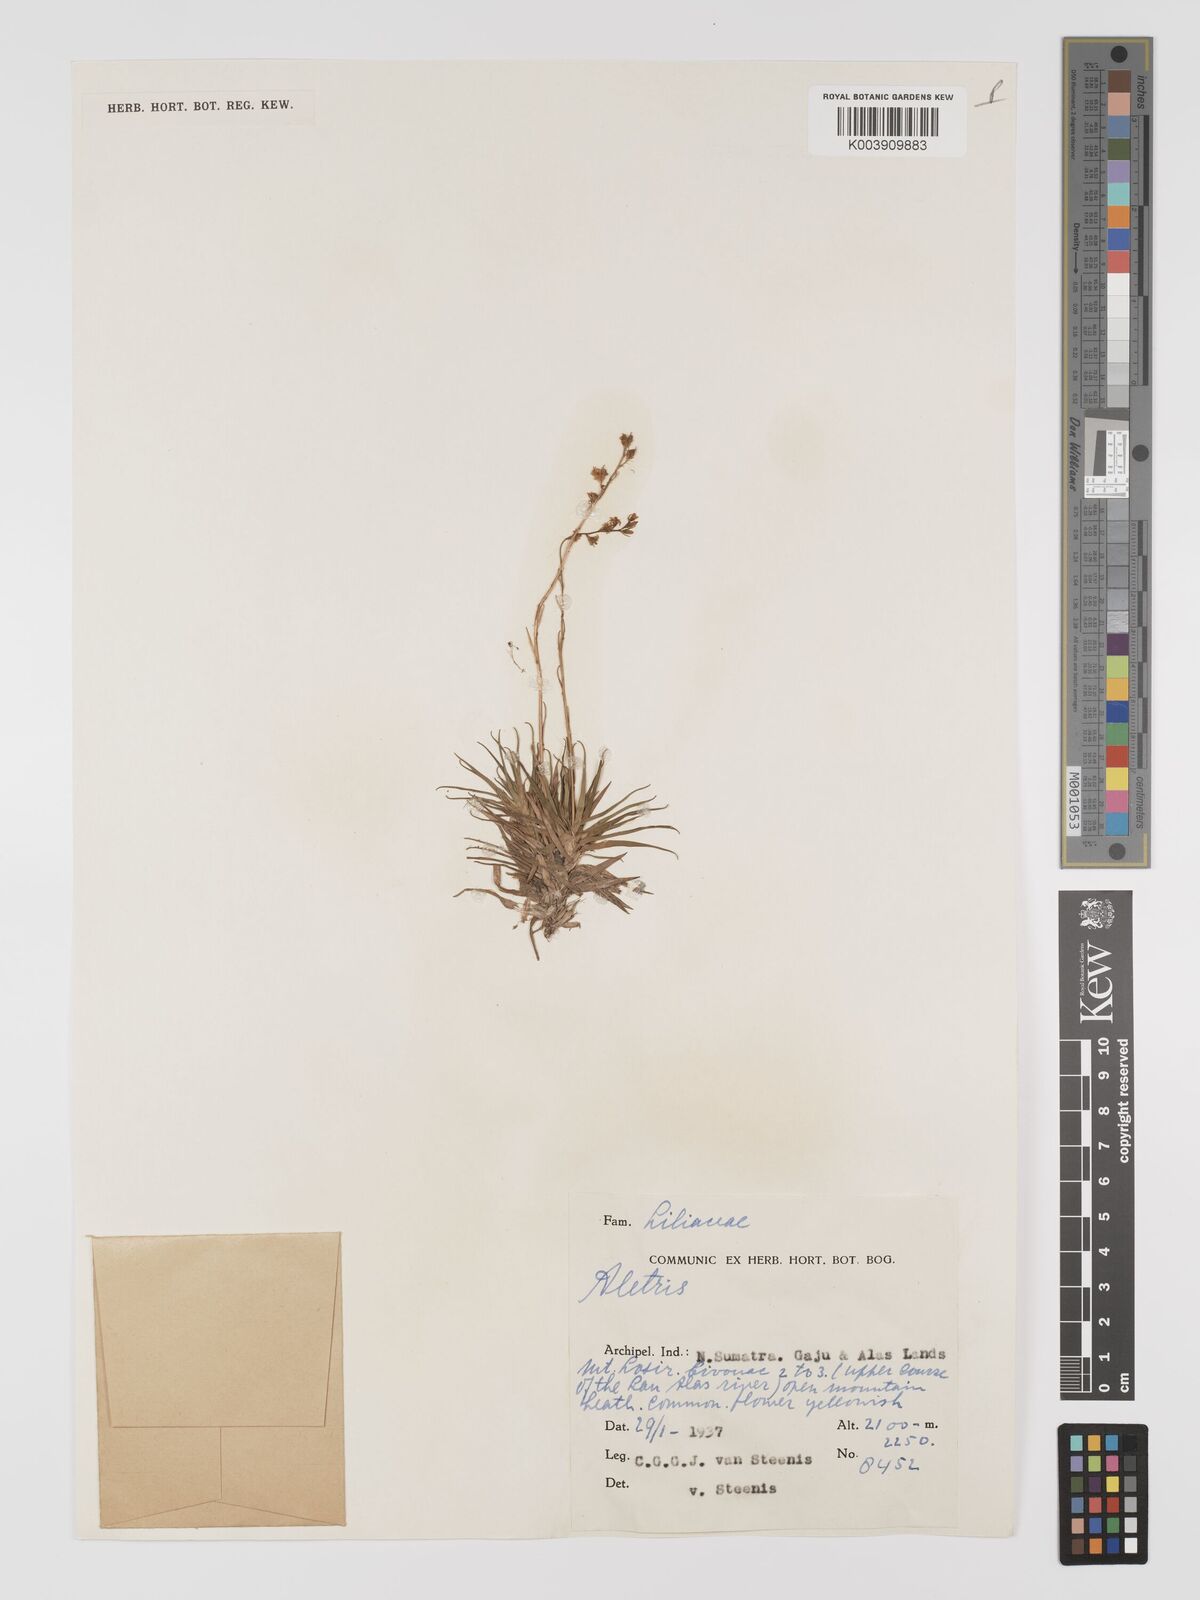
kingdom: Plantae
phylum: Tracheophyta
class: Liliopsida
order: Dioscoreales
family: Nartheciaceae
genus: Aletris
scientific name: Aletris
